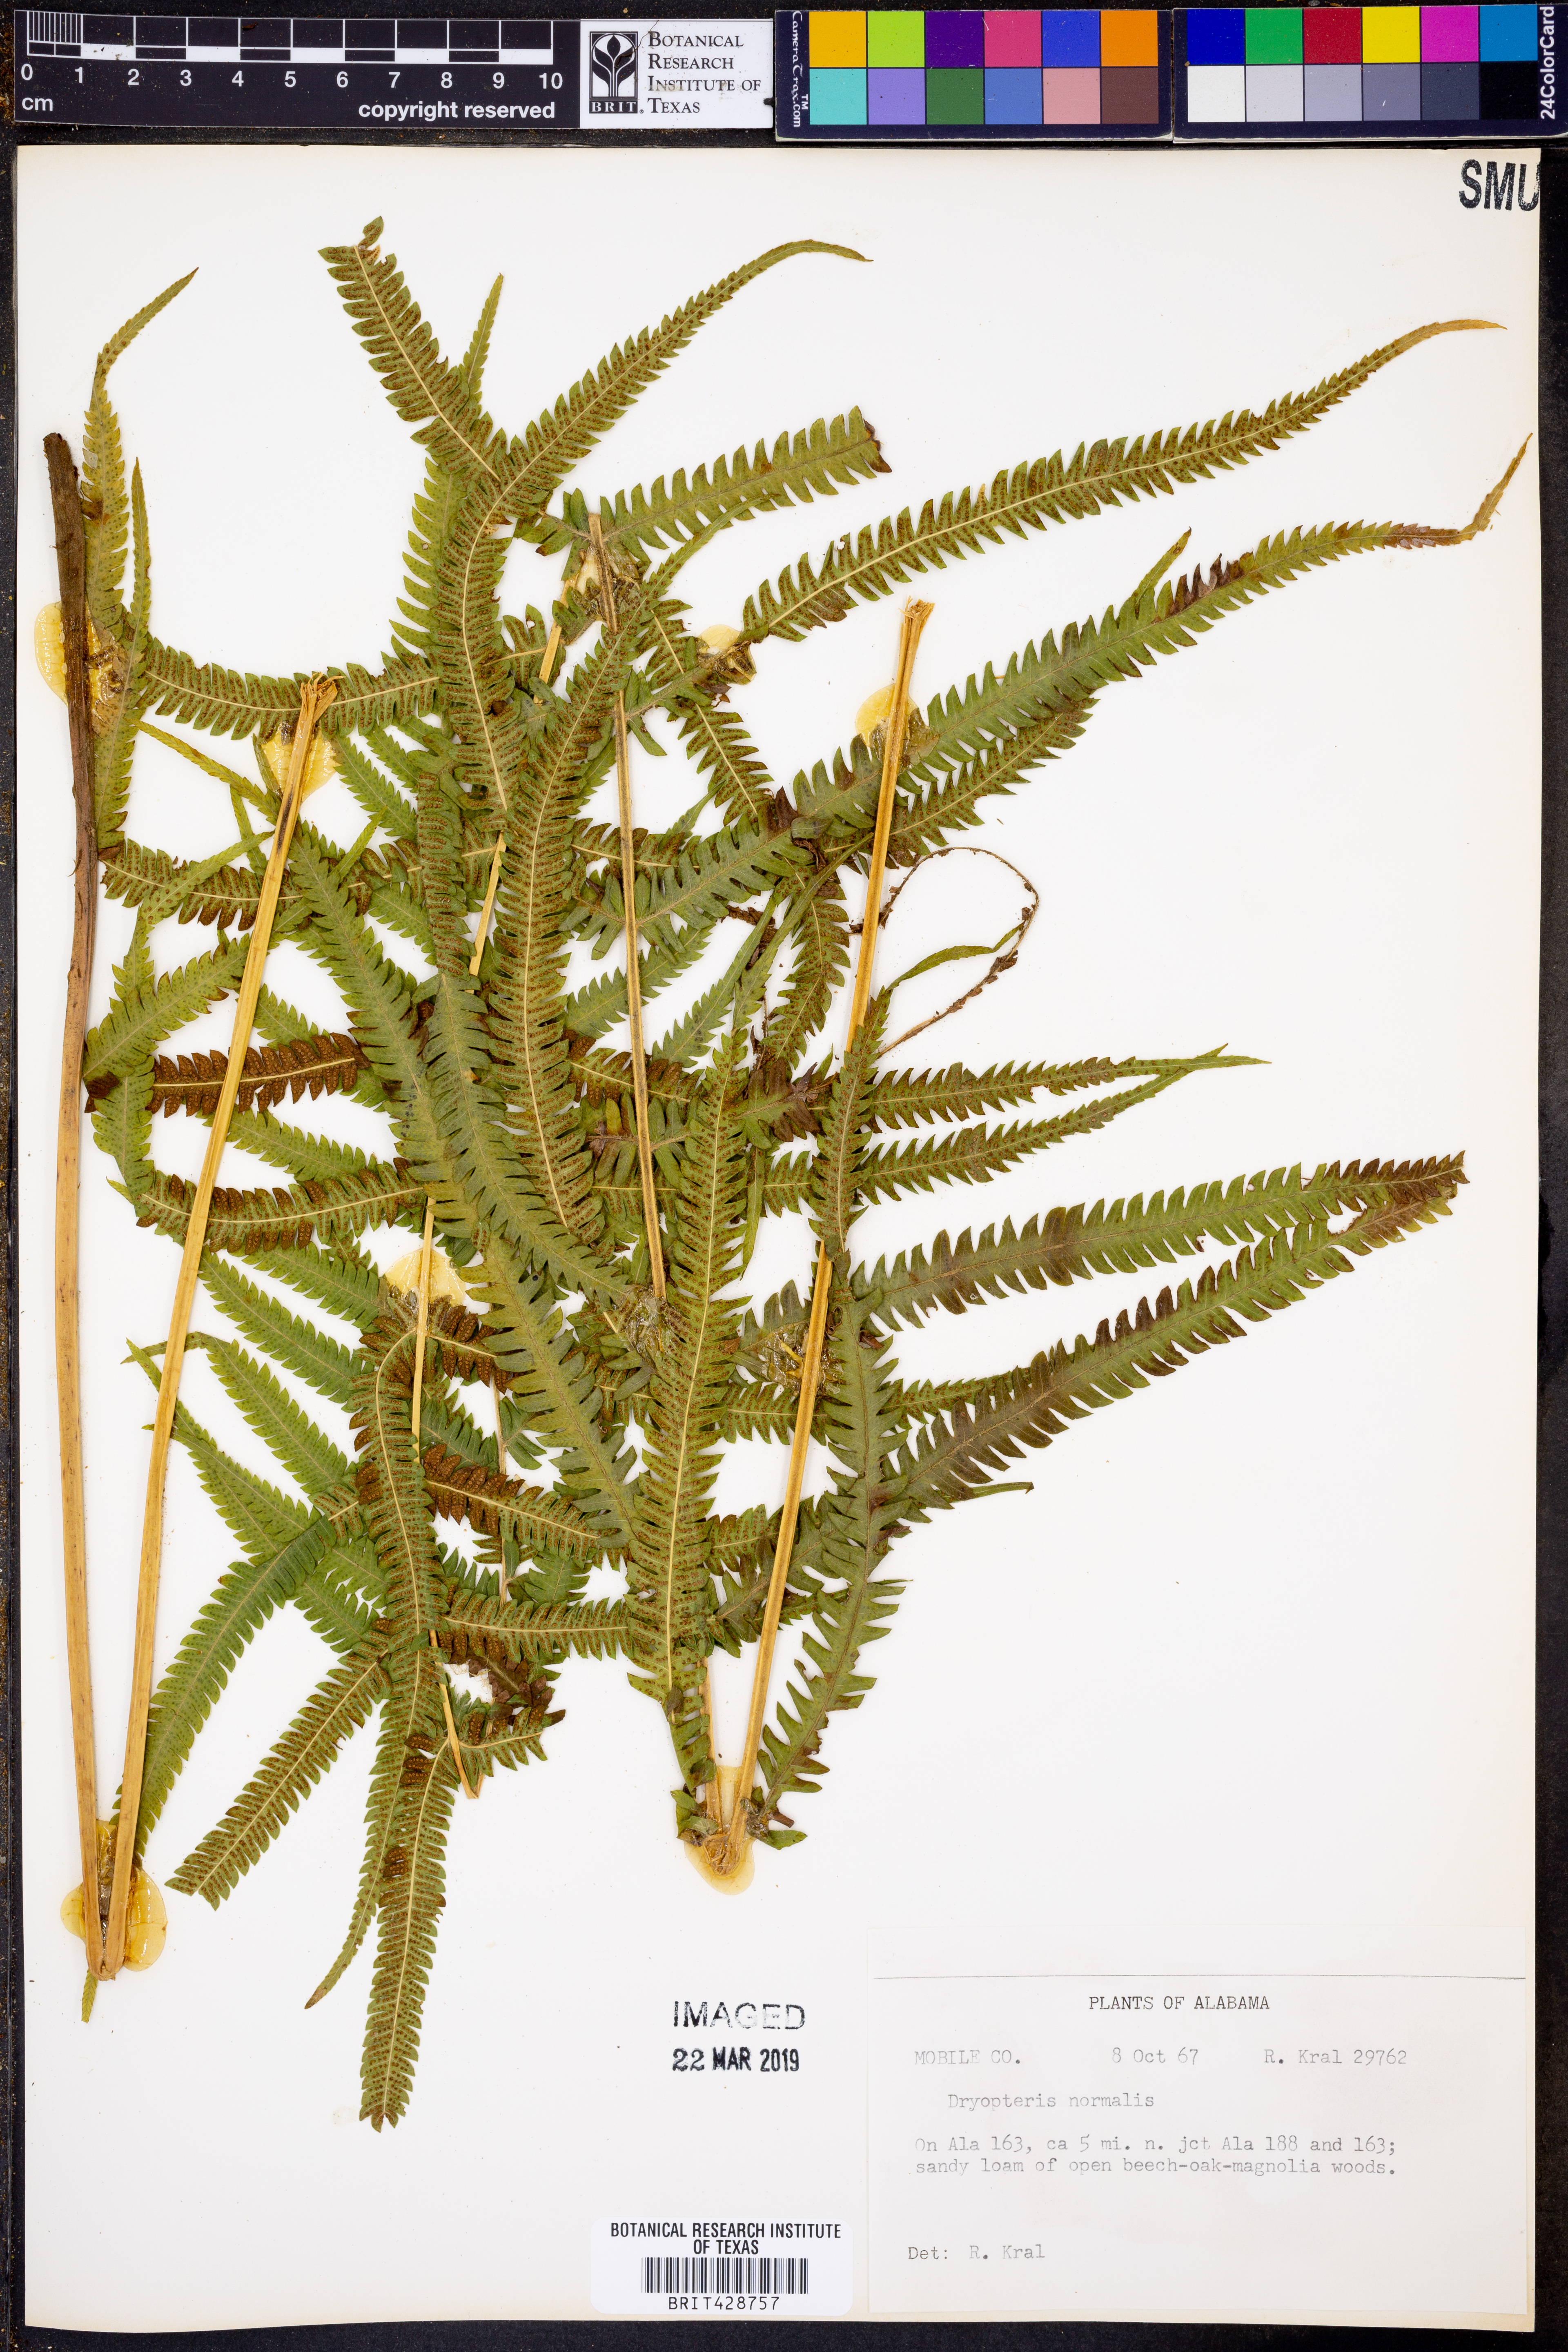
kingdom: Plantae
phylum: Tracheophyta
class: Polypodiopsida
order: Polypodiales
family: Thelypteridaceae
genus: Pelazoneuron
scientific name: Pelazoneuron kunthii
